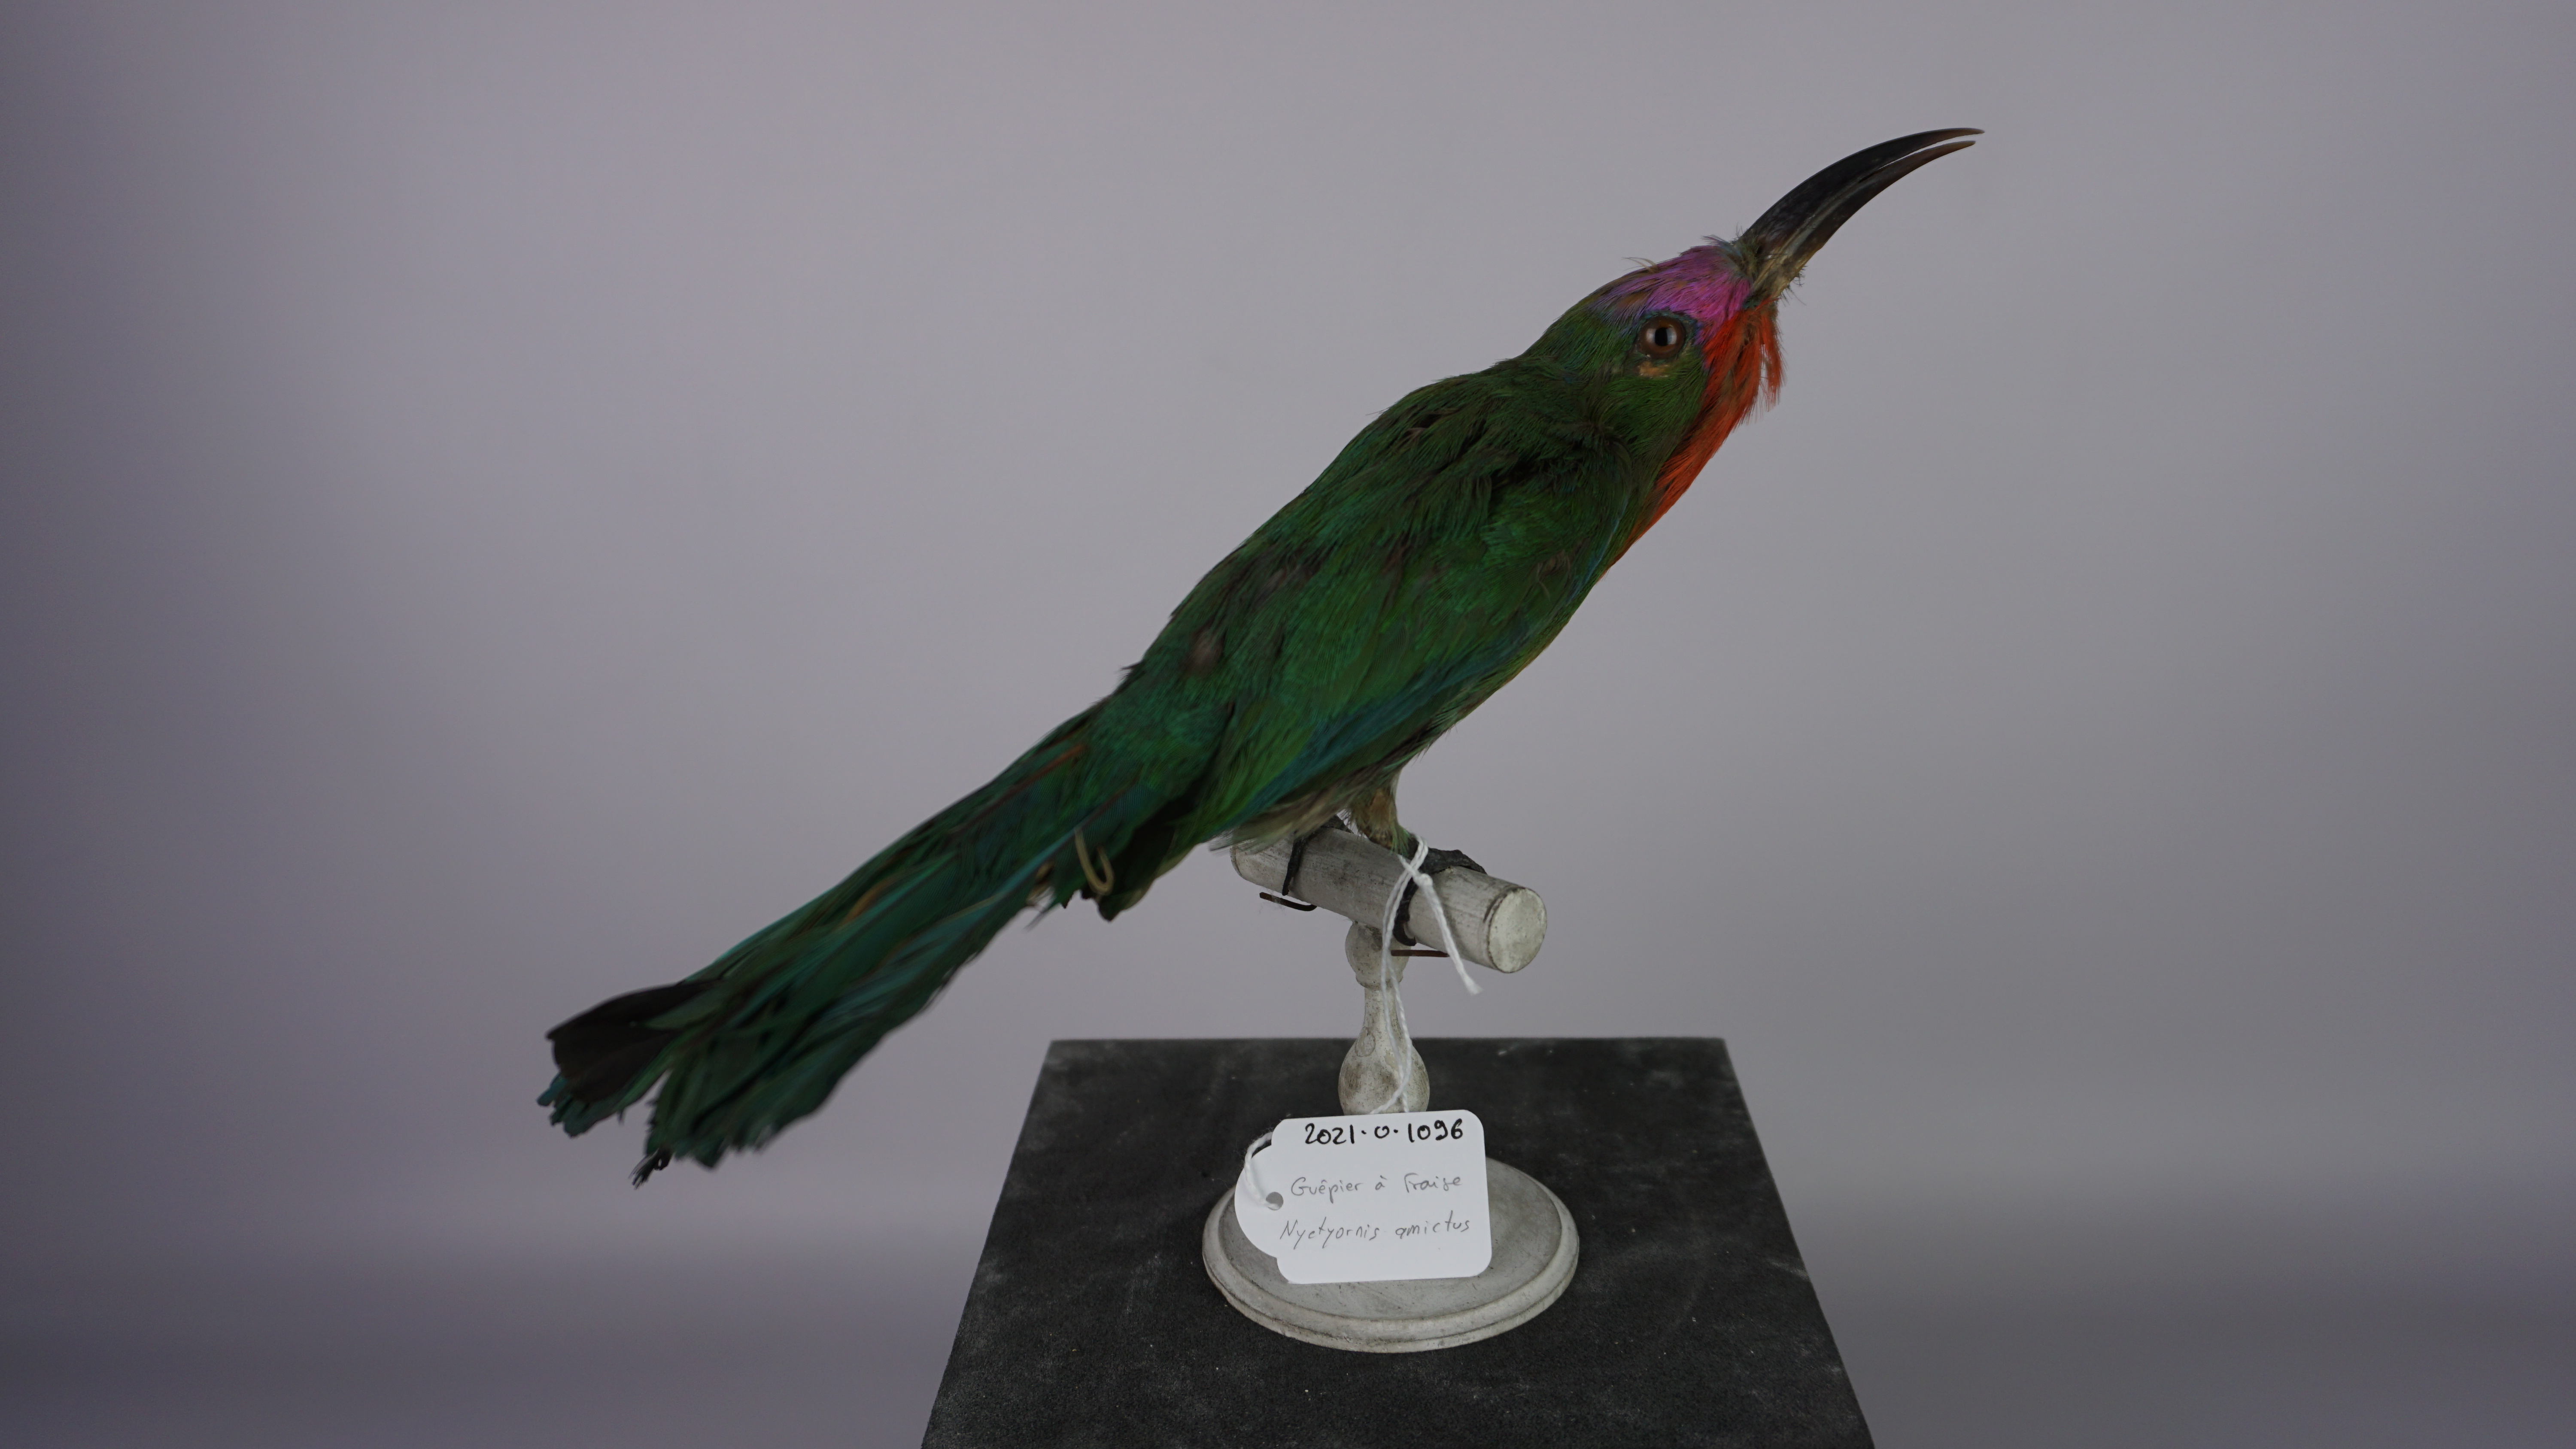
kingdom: Animalia
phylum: Chordata
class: Aves
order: Coraciiformes
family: Meropidae
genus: Nyctyornis
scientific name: Nyctyornis amictus
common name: Red-bearded bee-eater
